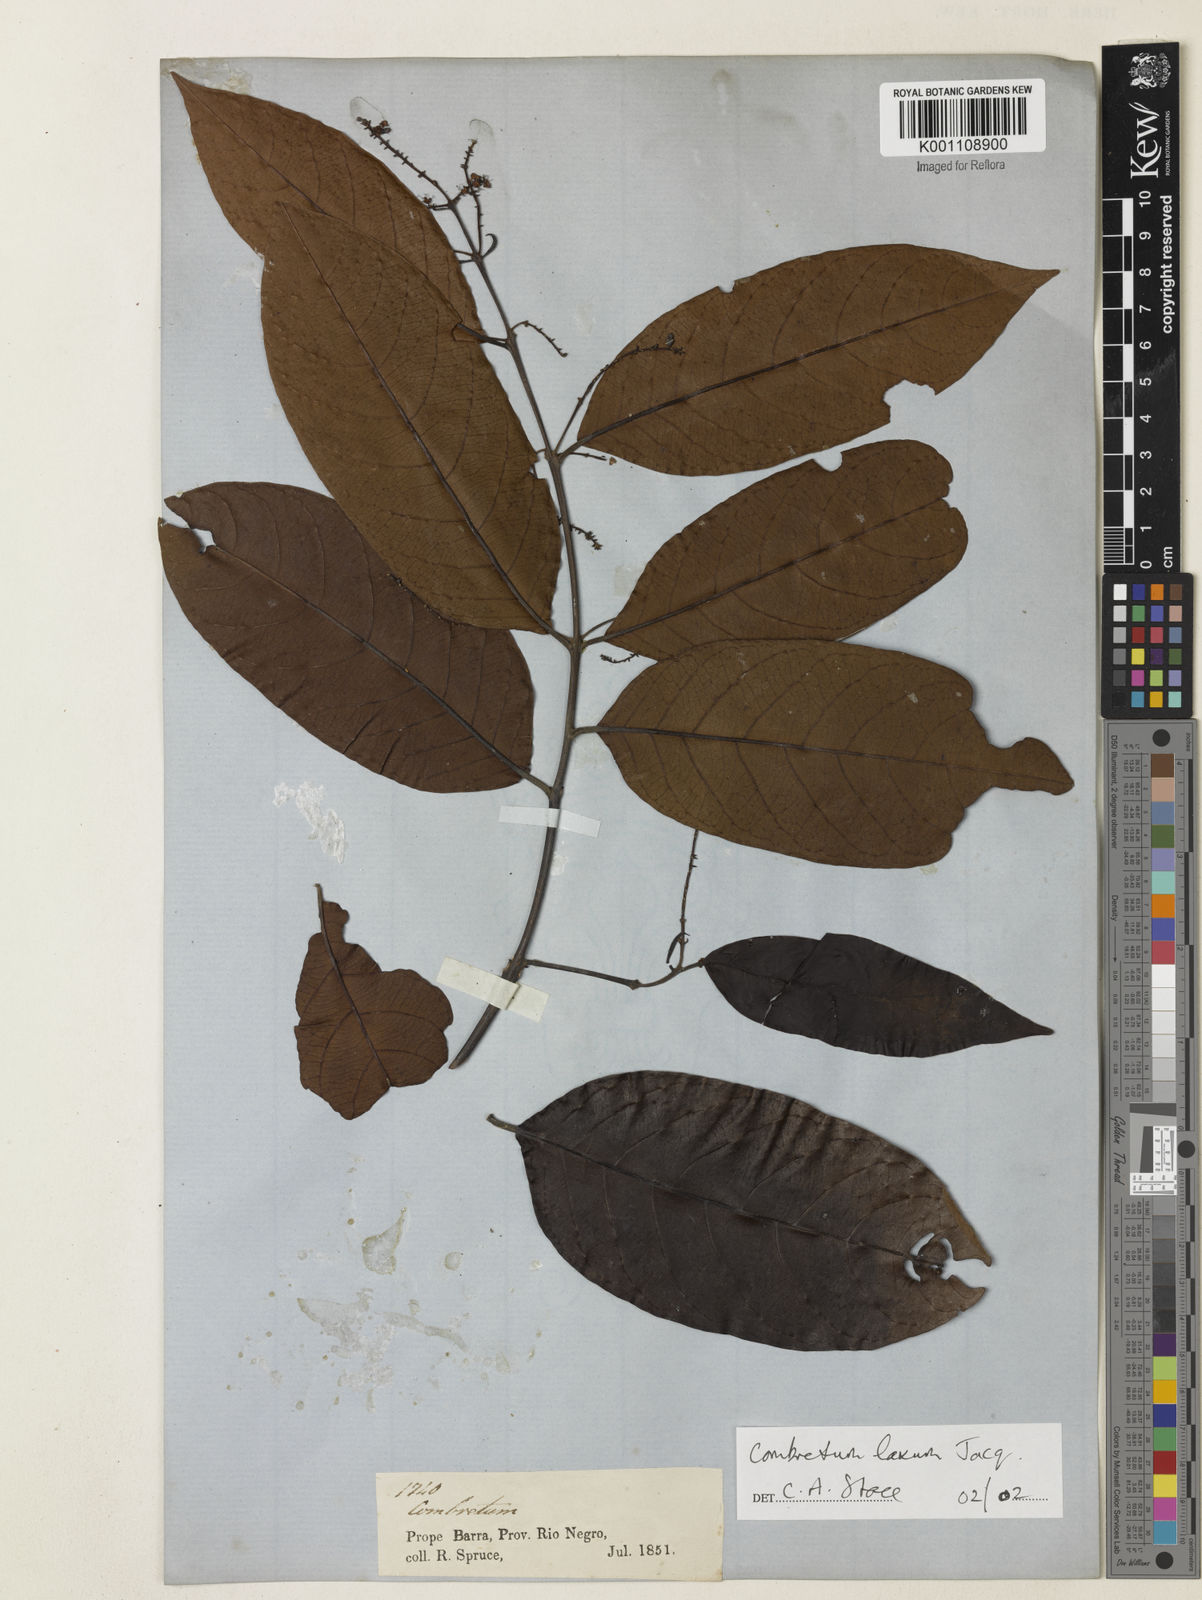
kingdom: Plantae
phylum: Tracheophyta
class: Magnoliopsida
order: Myrtales
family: Combretaceae
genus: Combretum
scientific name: Combretum laxum
